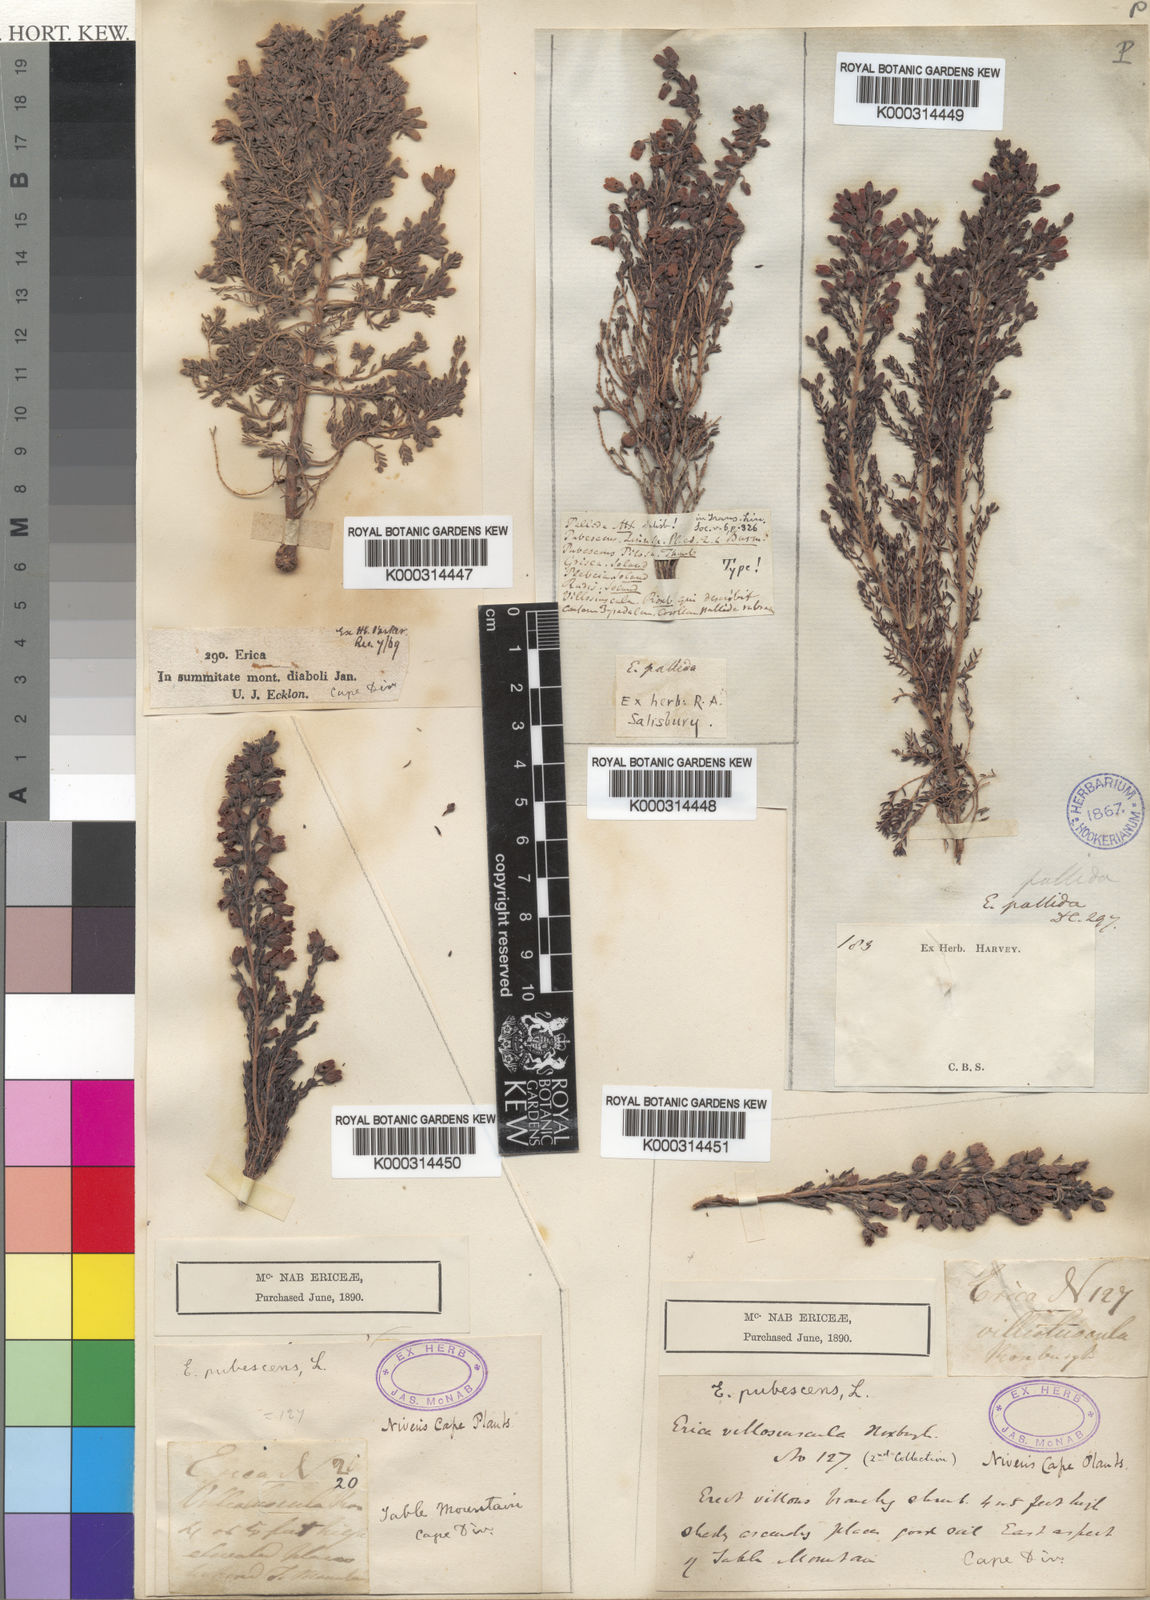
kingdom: Plantae
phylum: Tracheophyta
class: Magnoliopsida
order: Ericales
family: Ericaceae
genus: Erica
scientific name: Erica pubescens
